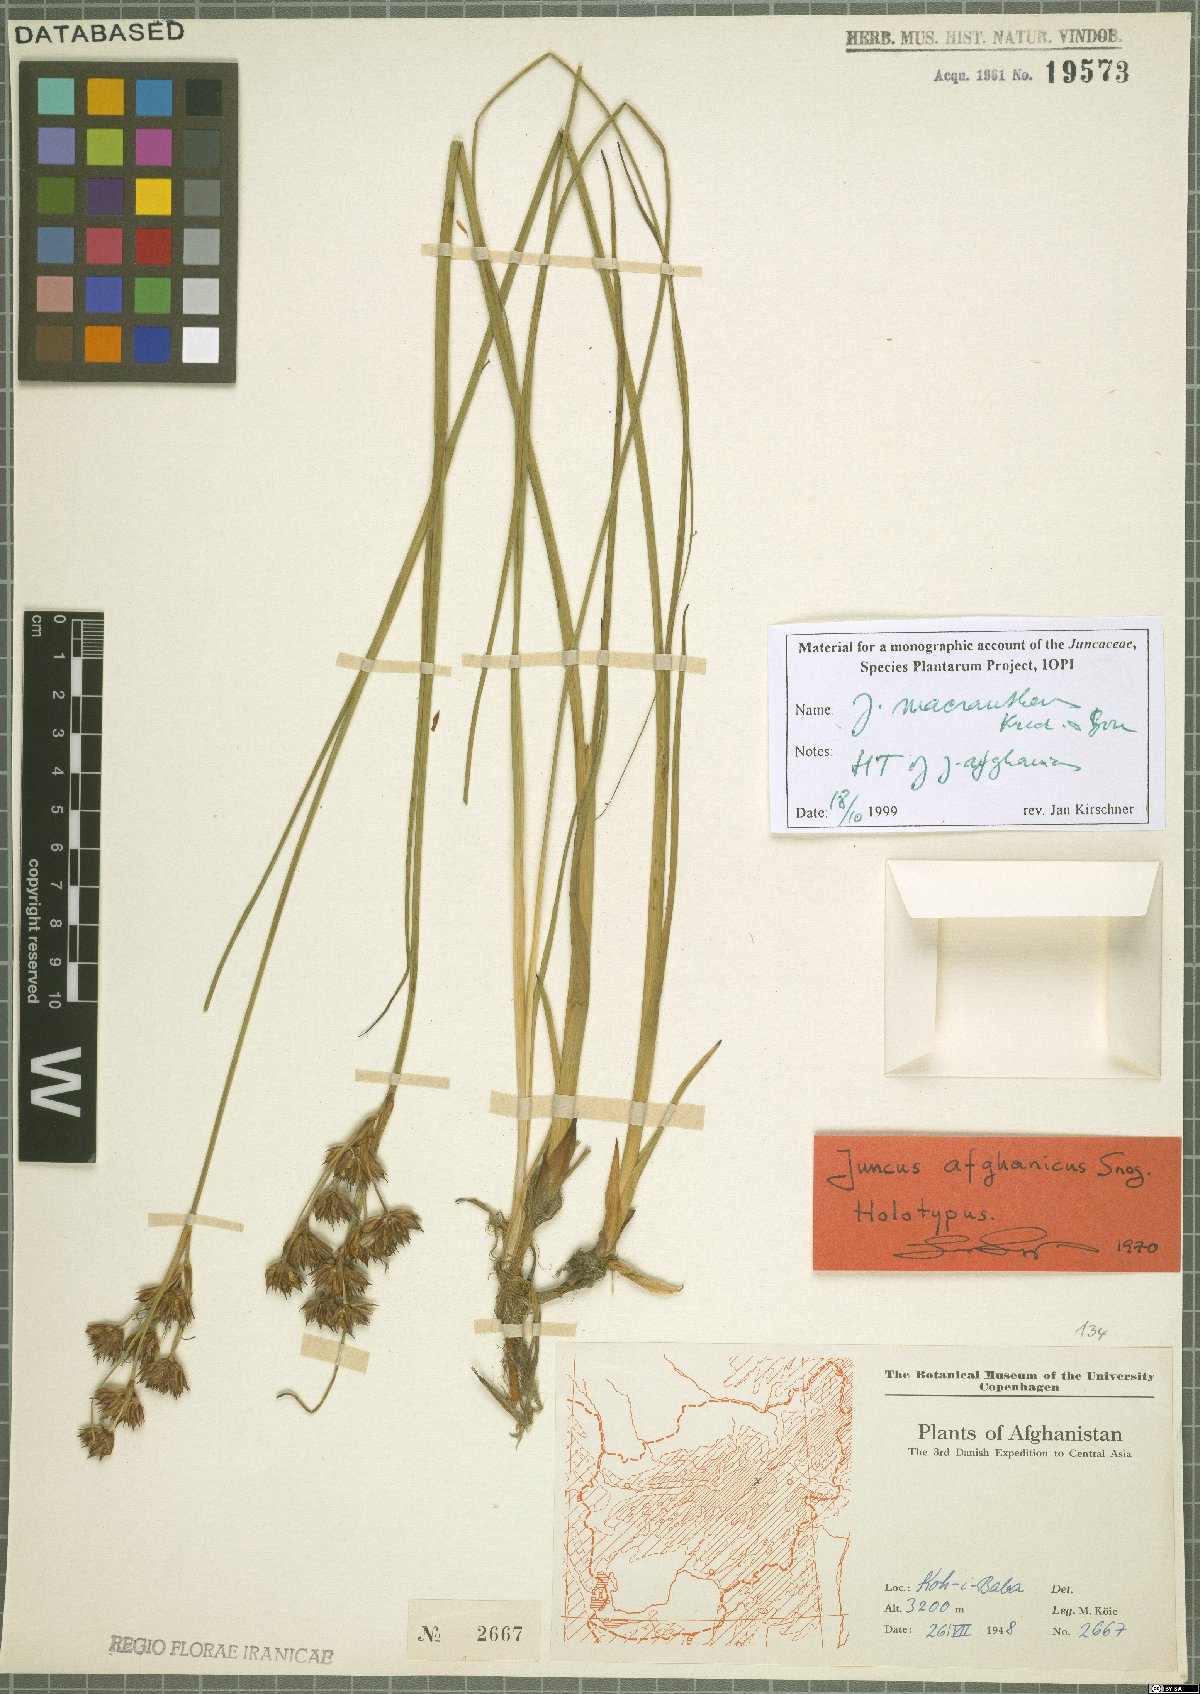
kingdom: Plantae
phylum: Tracheophyta
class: Liliopsida
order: Poales
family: Juncaceae
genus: Juncus
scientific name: Juncus macrantherus
